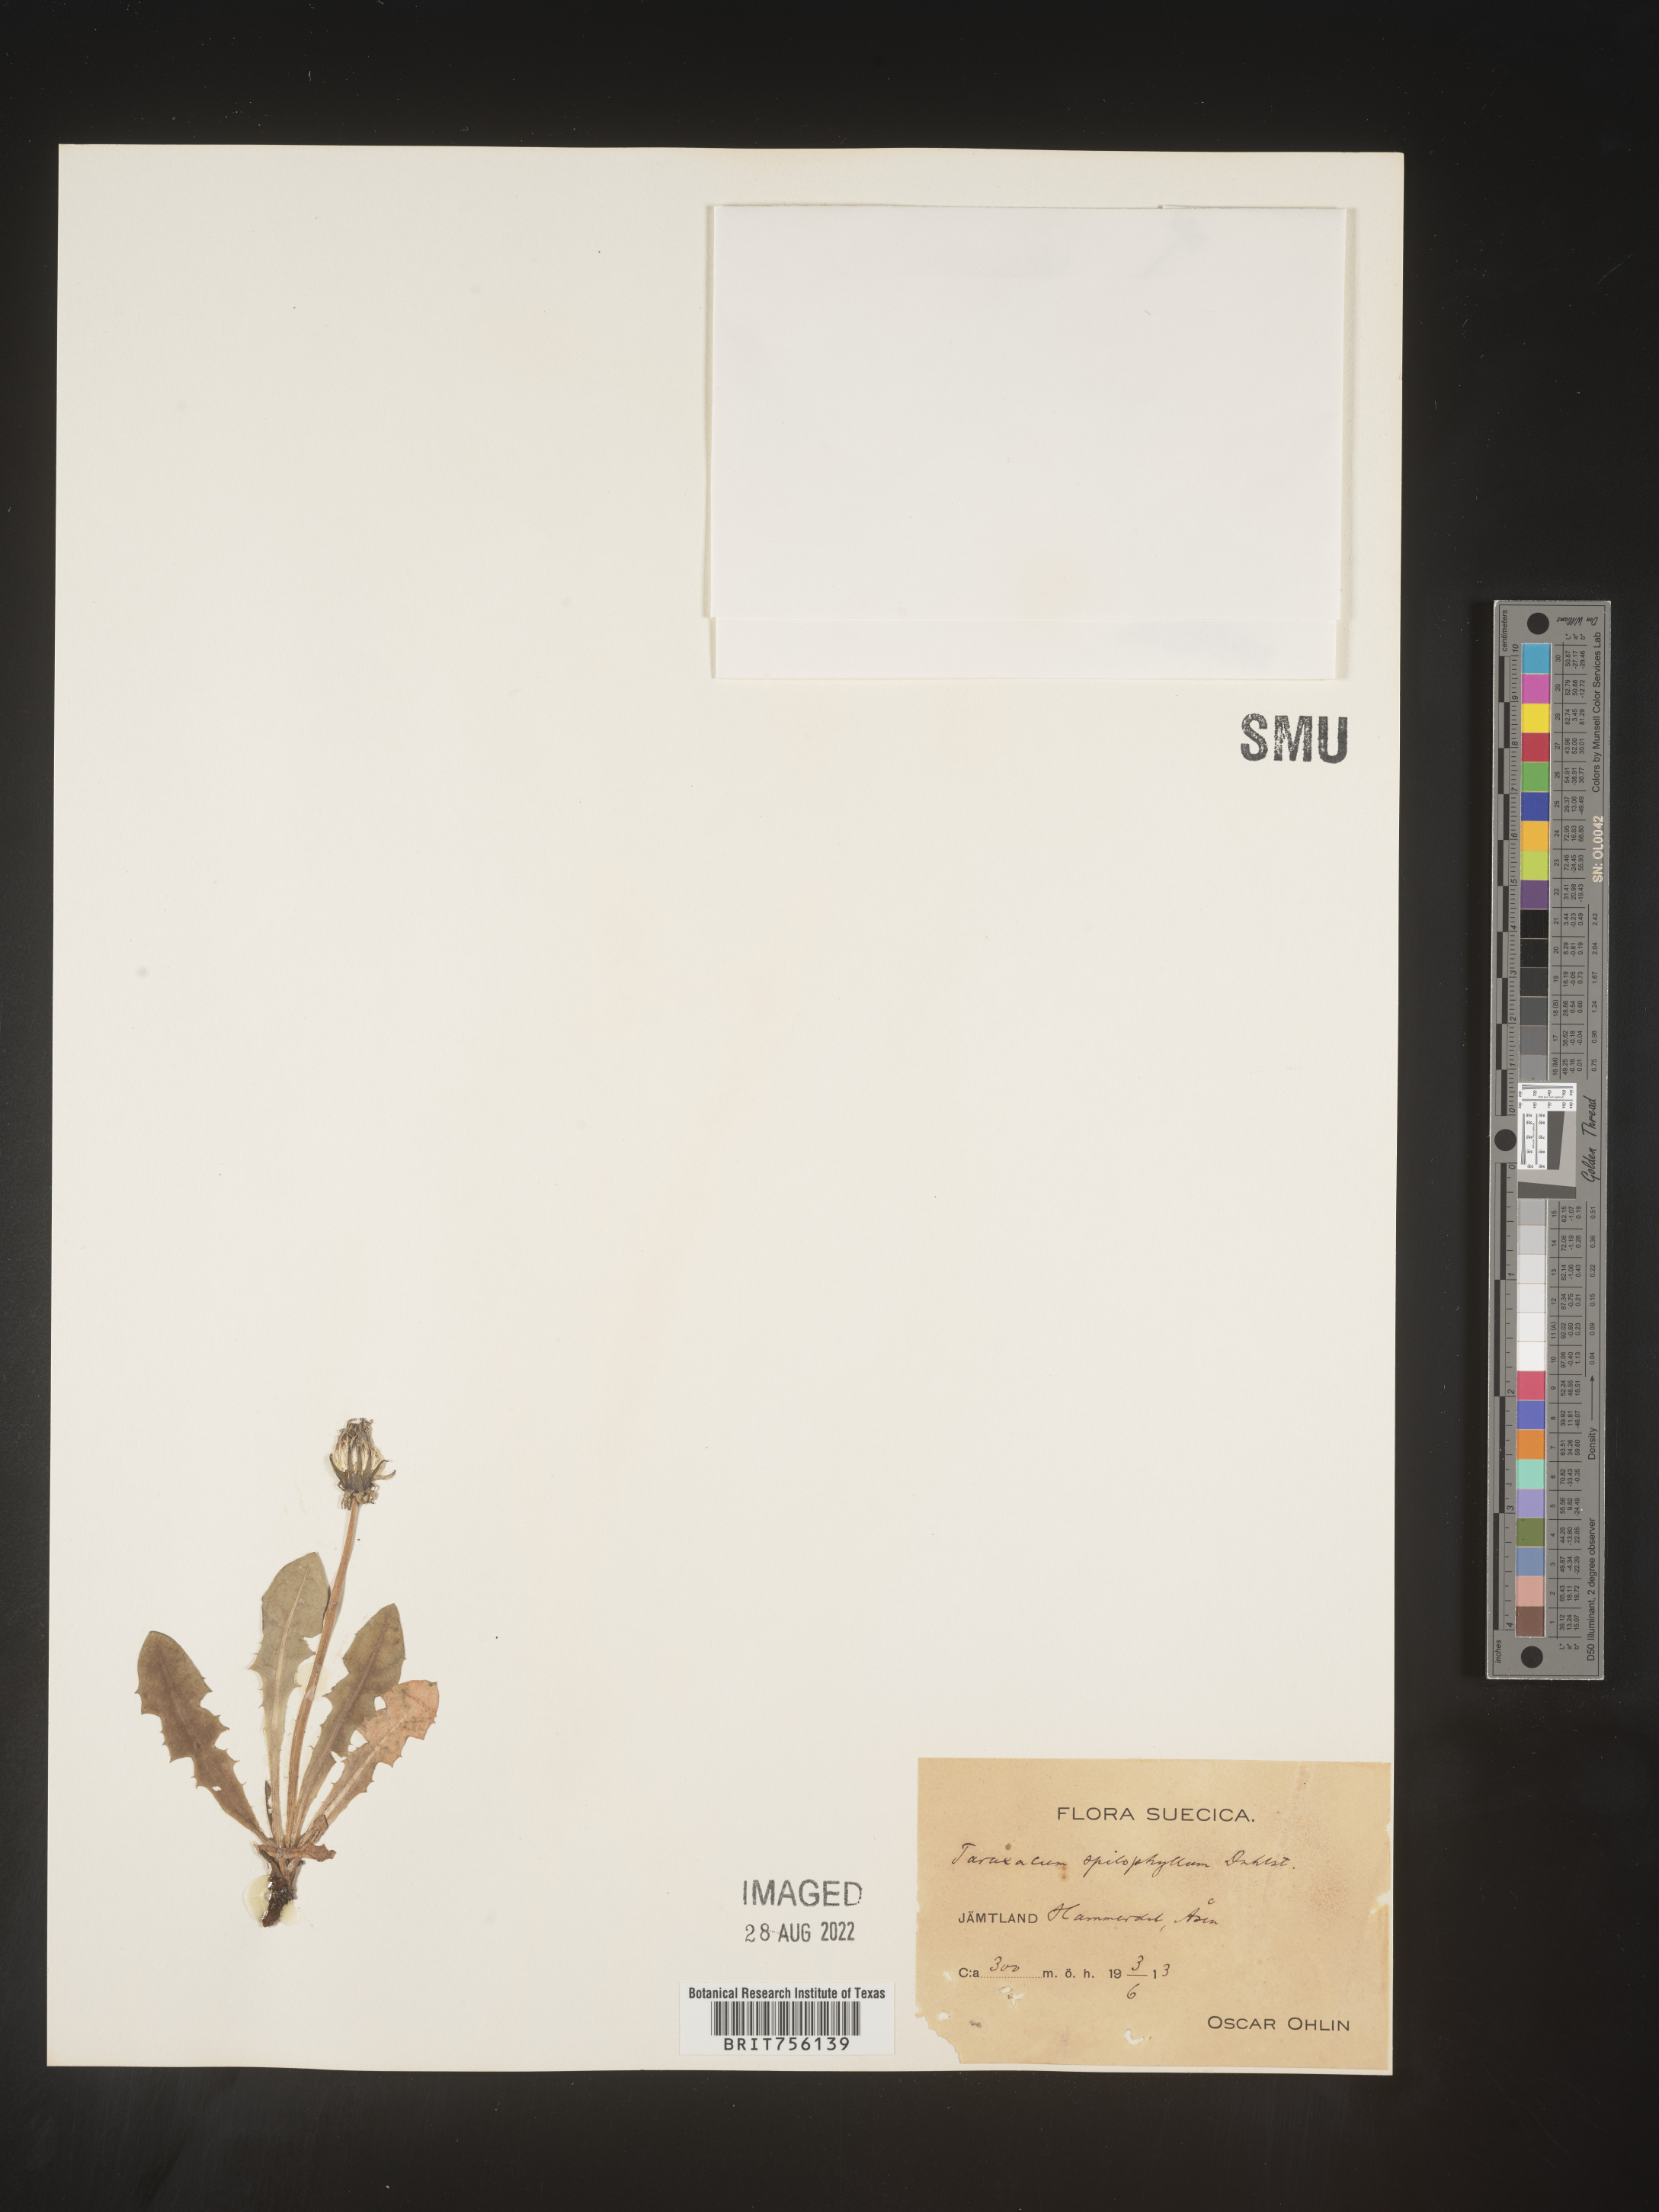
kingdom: Plantae
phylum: Tracheophyta
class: Magnoliopsida
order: Asterales
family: Asteraceae
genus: Taraxacum
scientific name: Taraxacum
